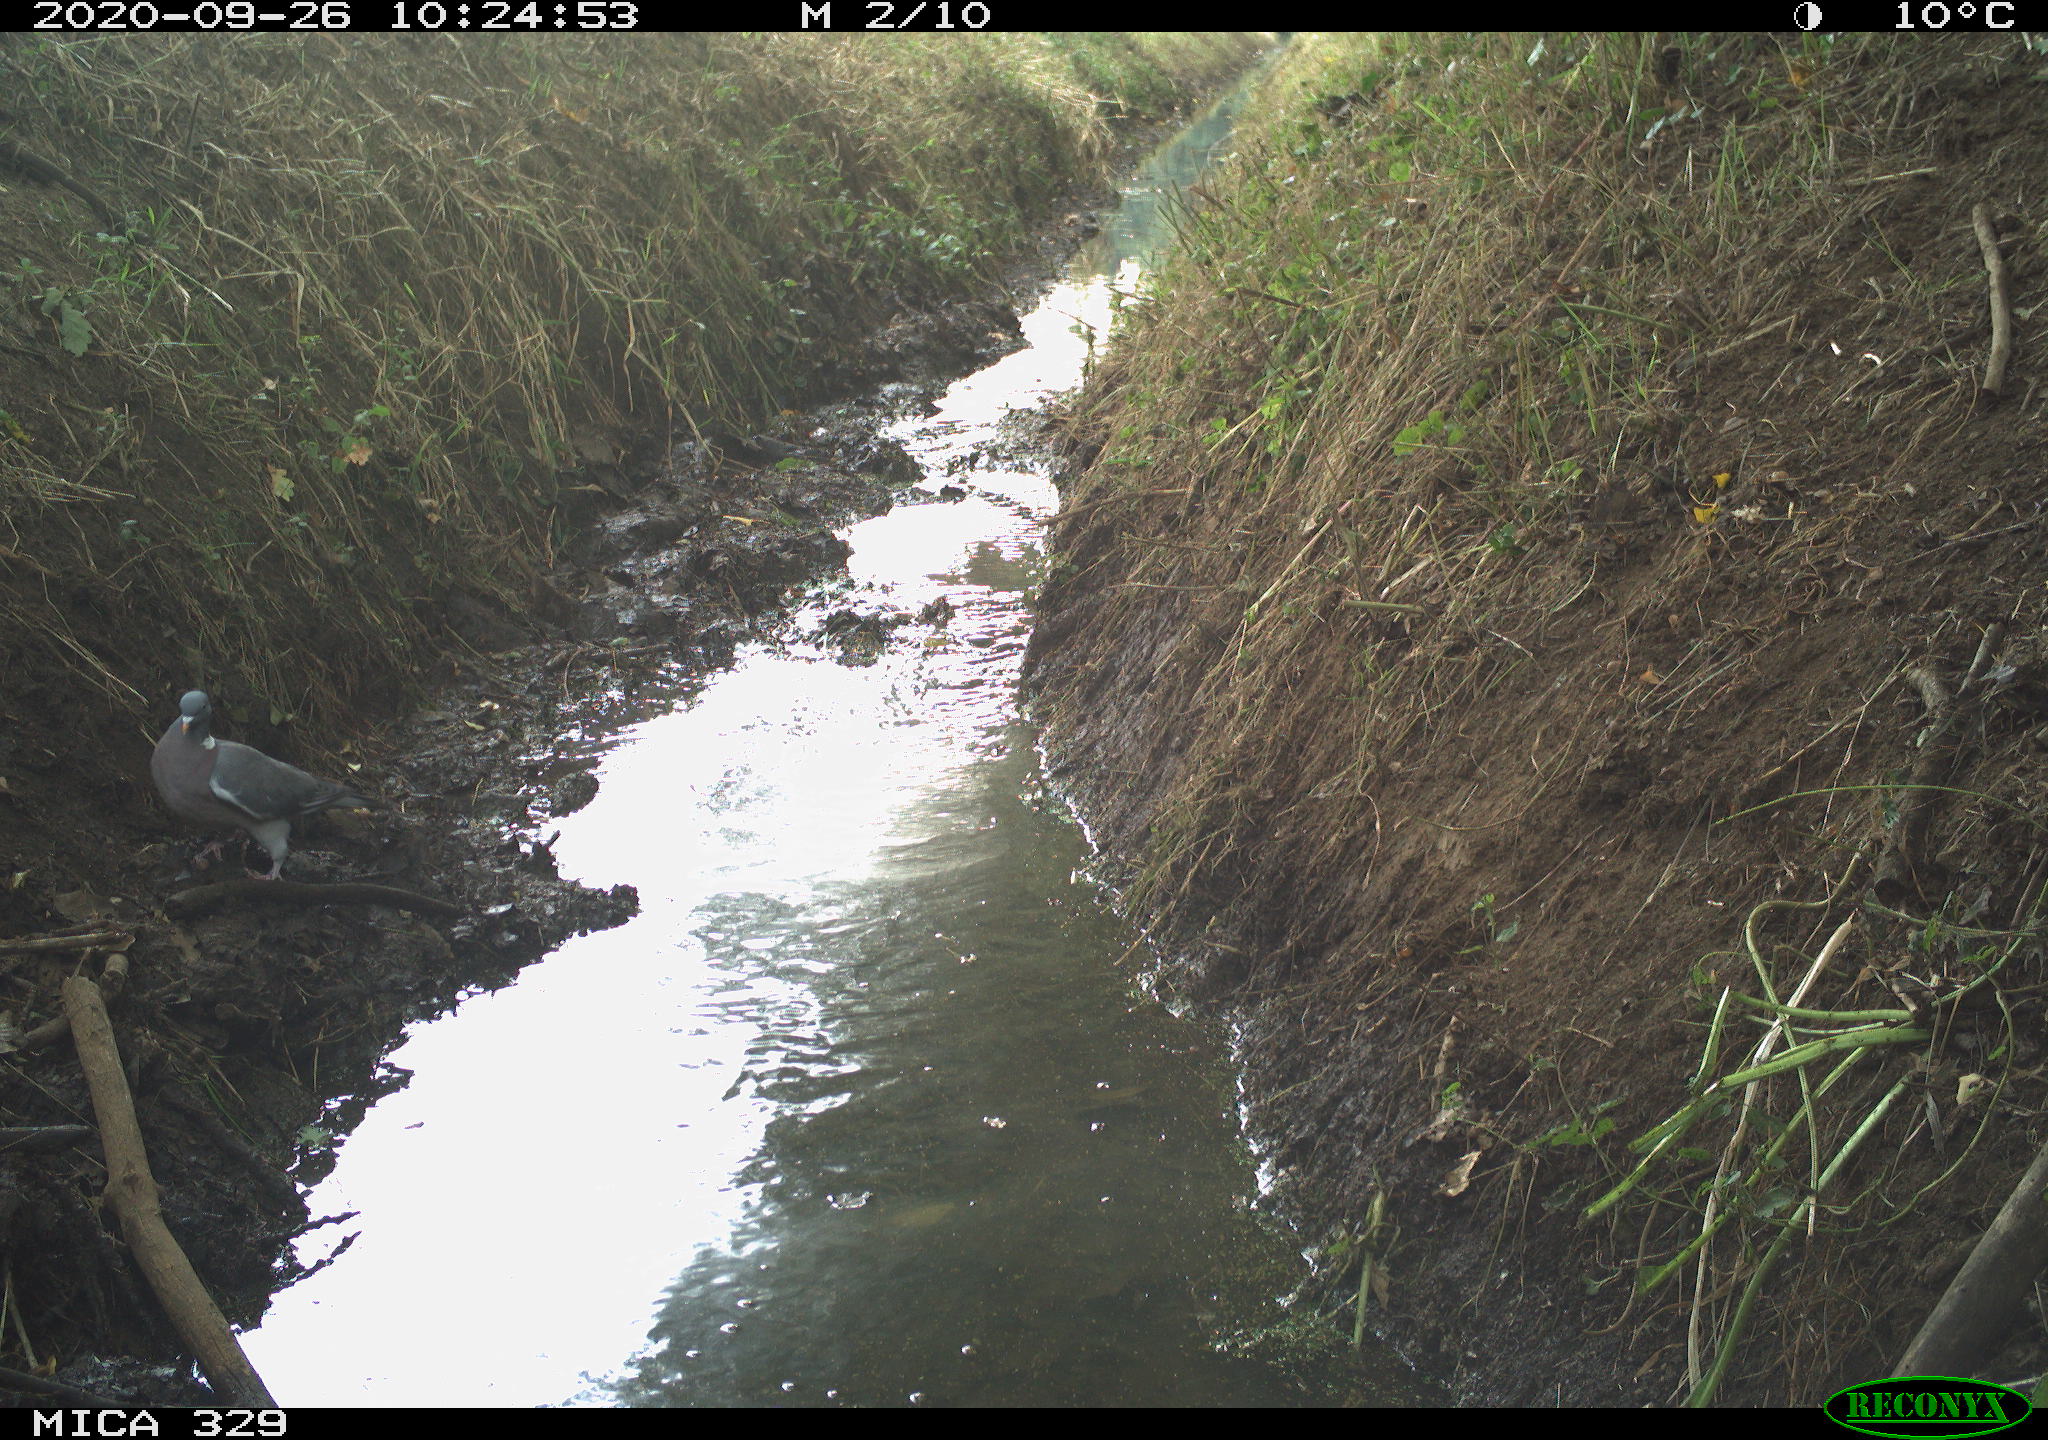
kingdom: Animalia
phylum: Chordata
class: Aves
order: Columbiformes
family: Columbidae
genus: Columba
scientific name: Columba palumbus
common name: Common wood pigeon
